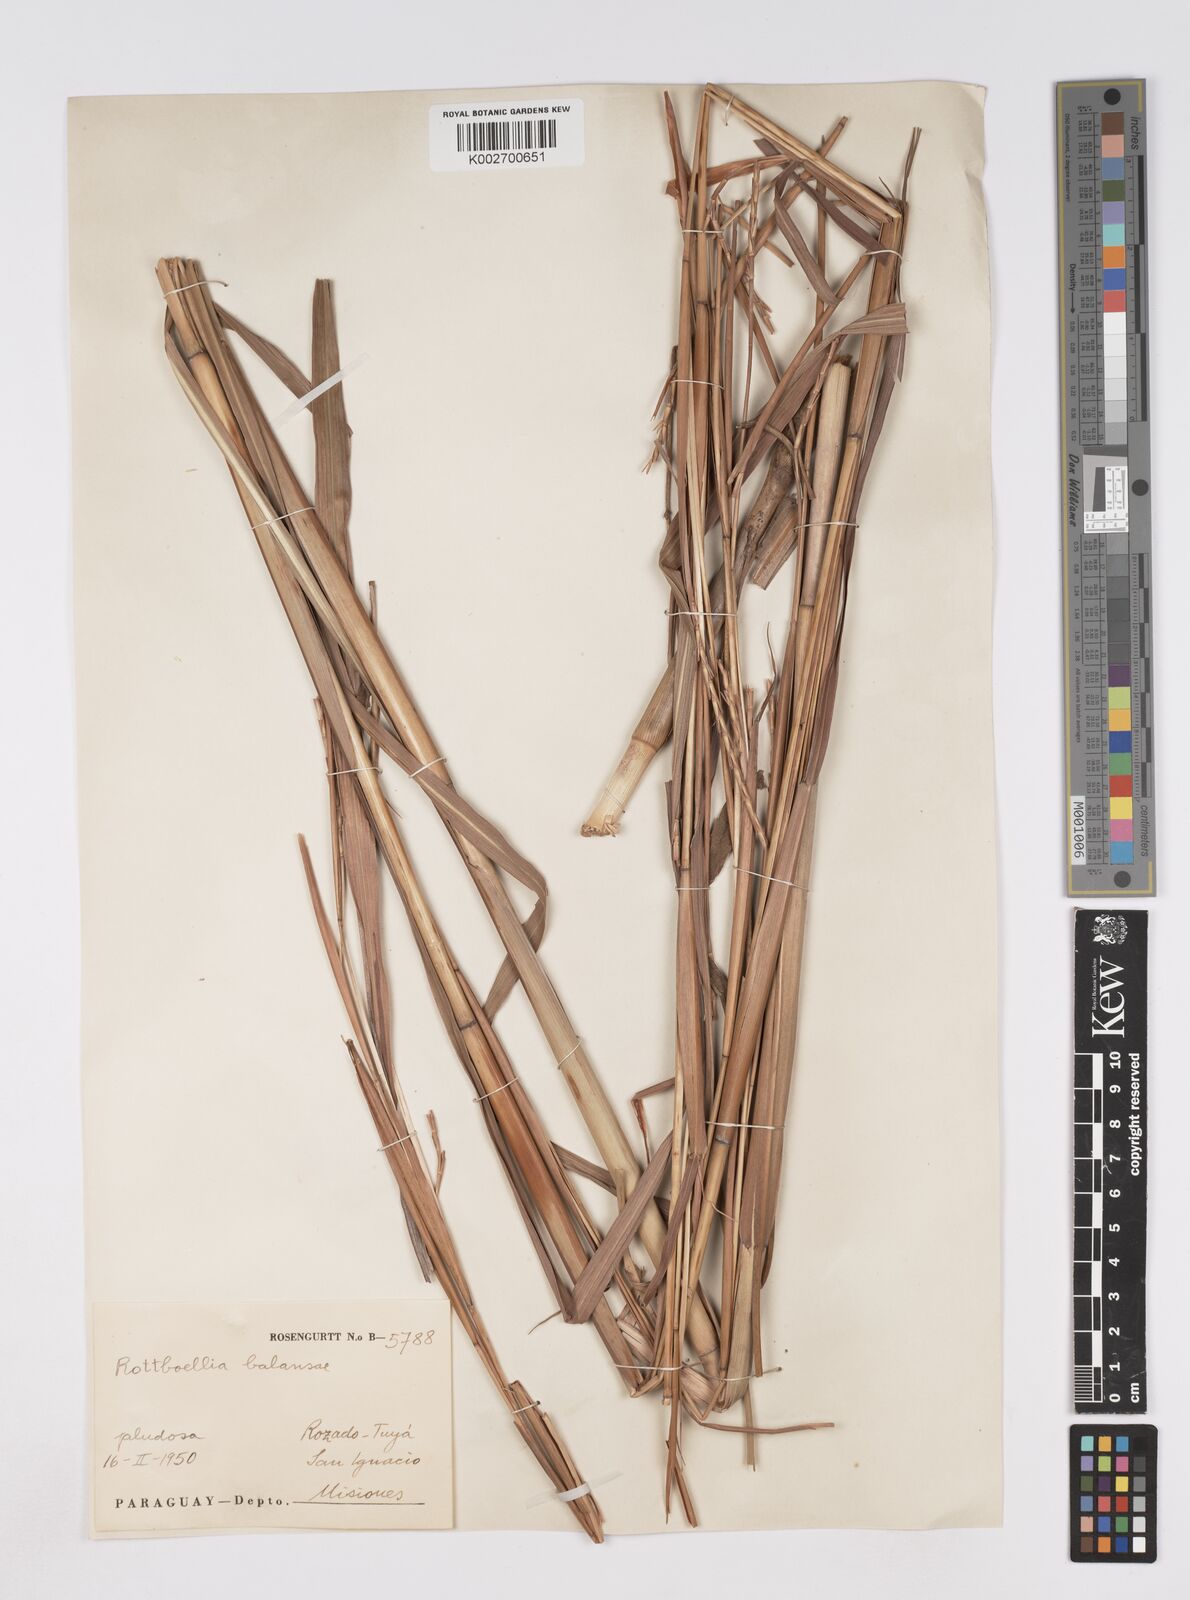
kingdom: Plantae
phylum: Tracheophyta
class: Liliopsida
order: Poales
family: Poaceae
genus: Rottboellia
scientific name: Rottboellia balansae
